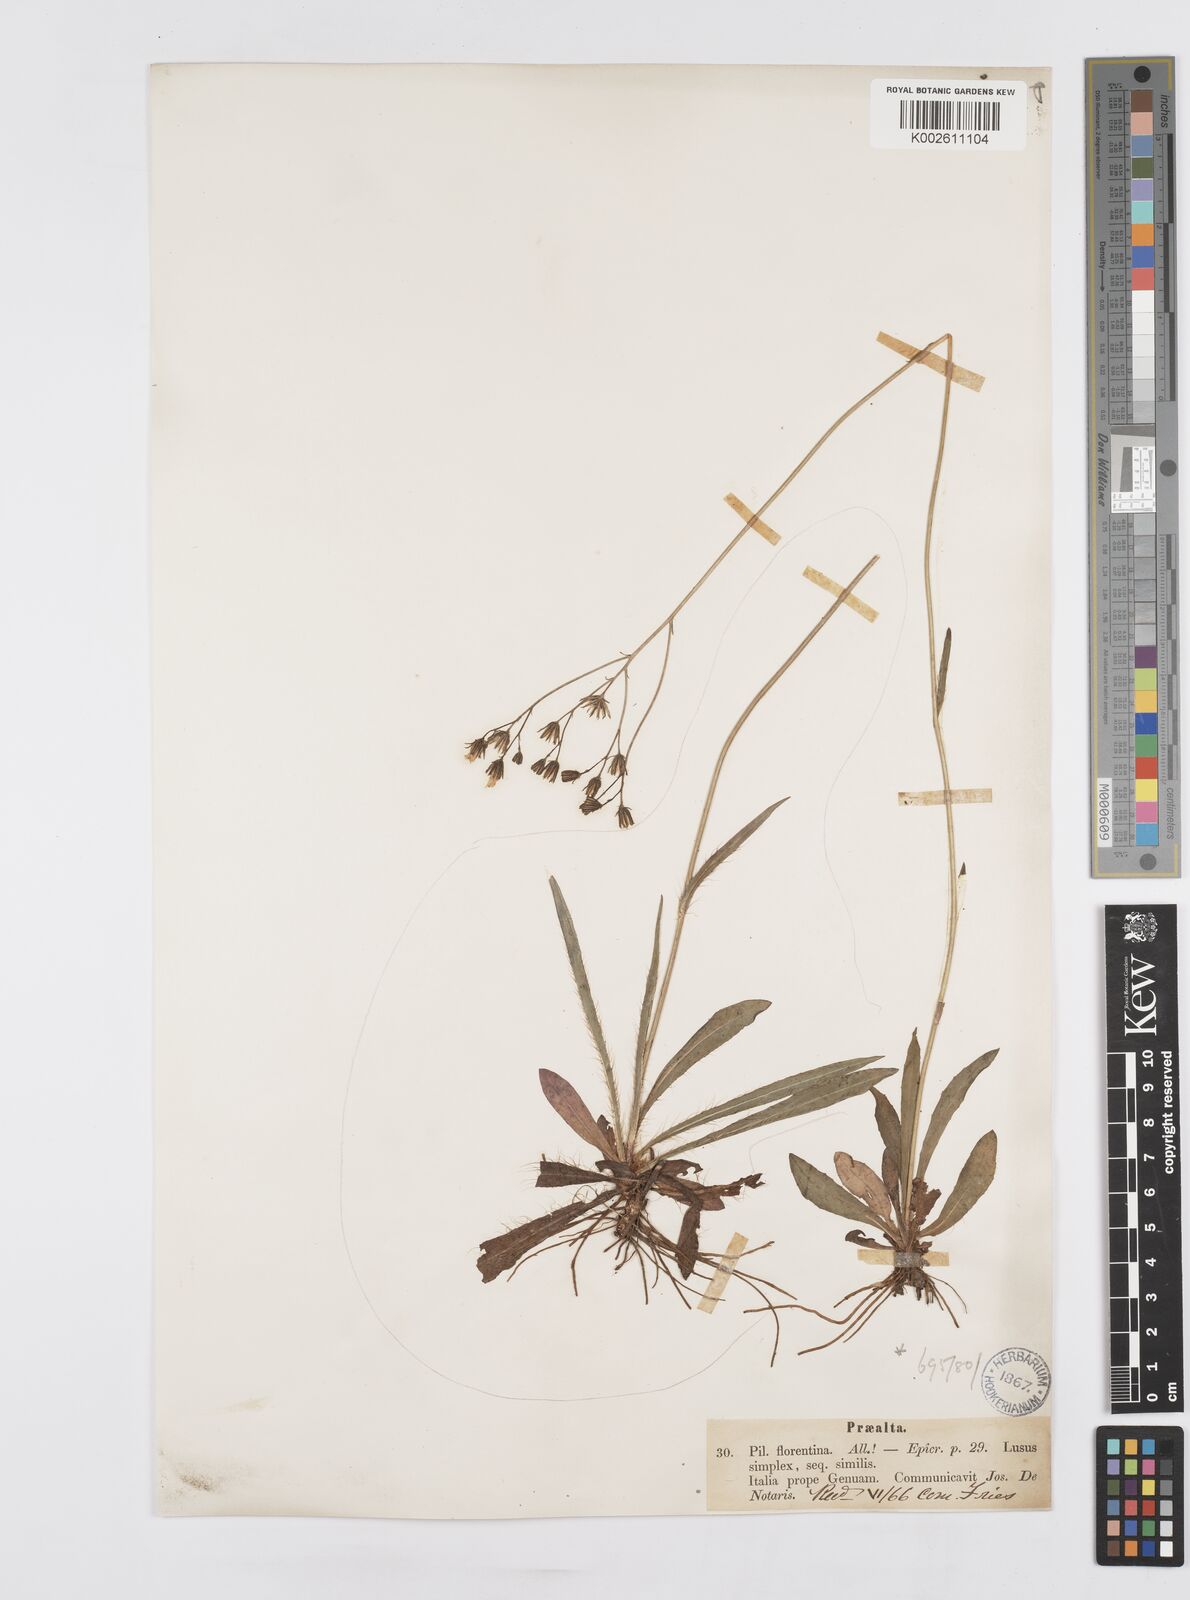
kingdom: Plantae
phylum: Tracheophyta
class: Magnoliopsida
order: Asterales
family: Asteraceae
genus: Pilosella
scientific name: Pilosella piloselloides
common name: Glaucous king-devil
